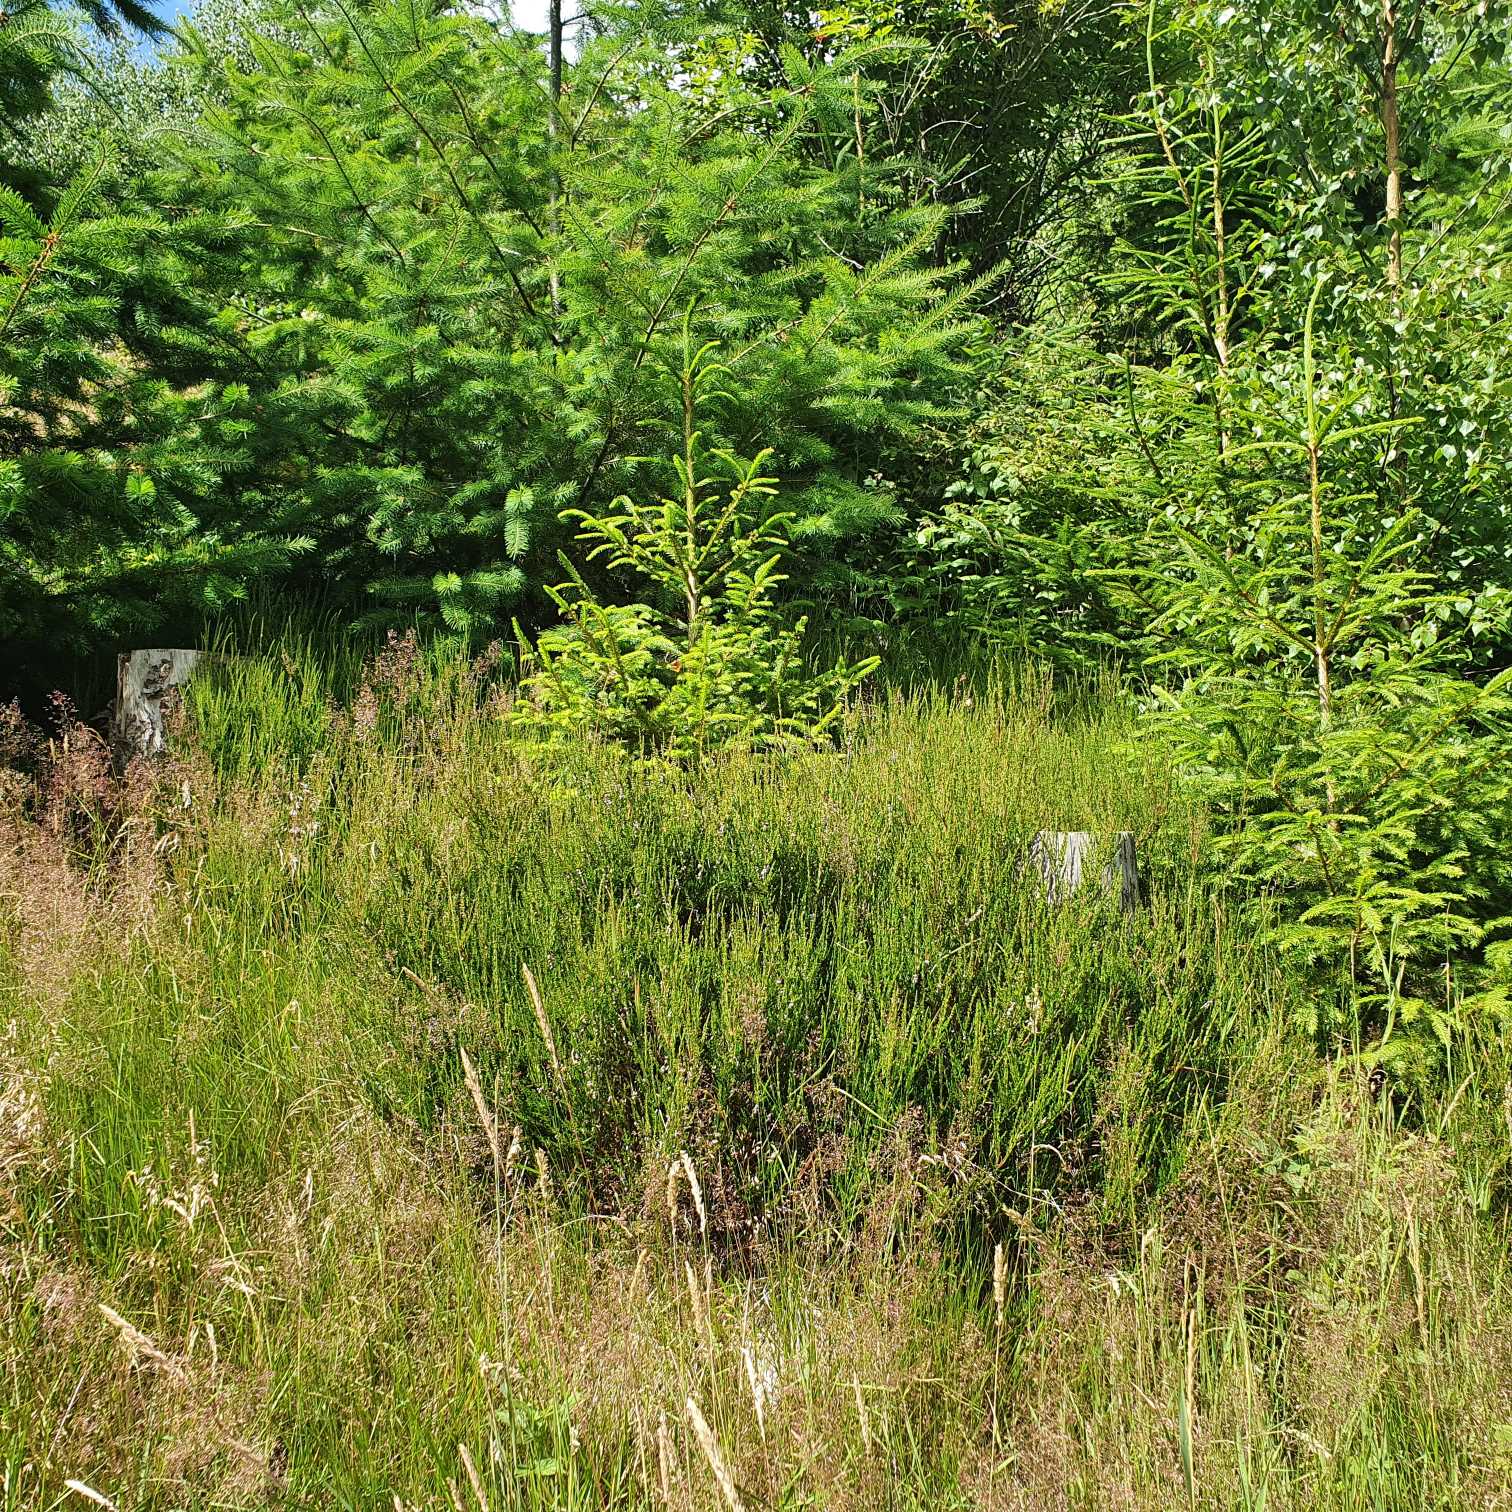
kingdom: Plantae
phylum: Tracheophyta
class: Magnoliopsida
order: Ericales
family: Ericaceae
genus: Calluna
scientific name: Calluna vulgaris
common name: Hedelyng
